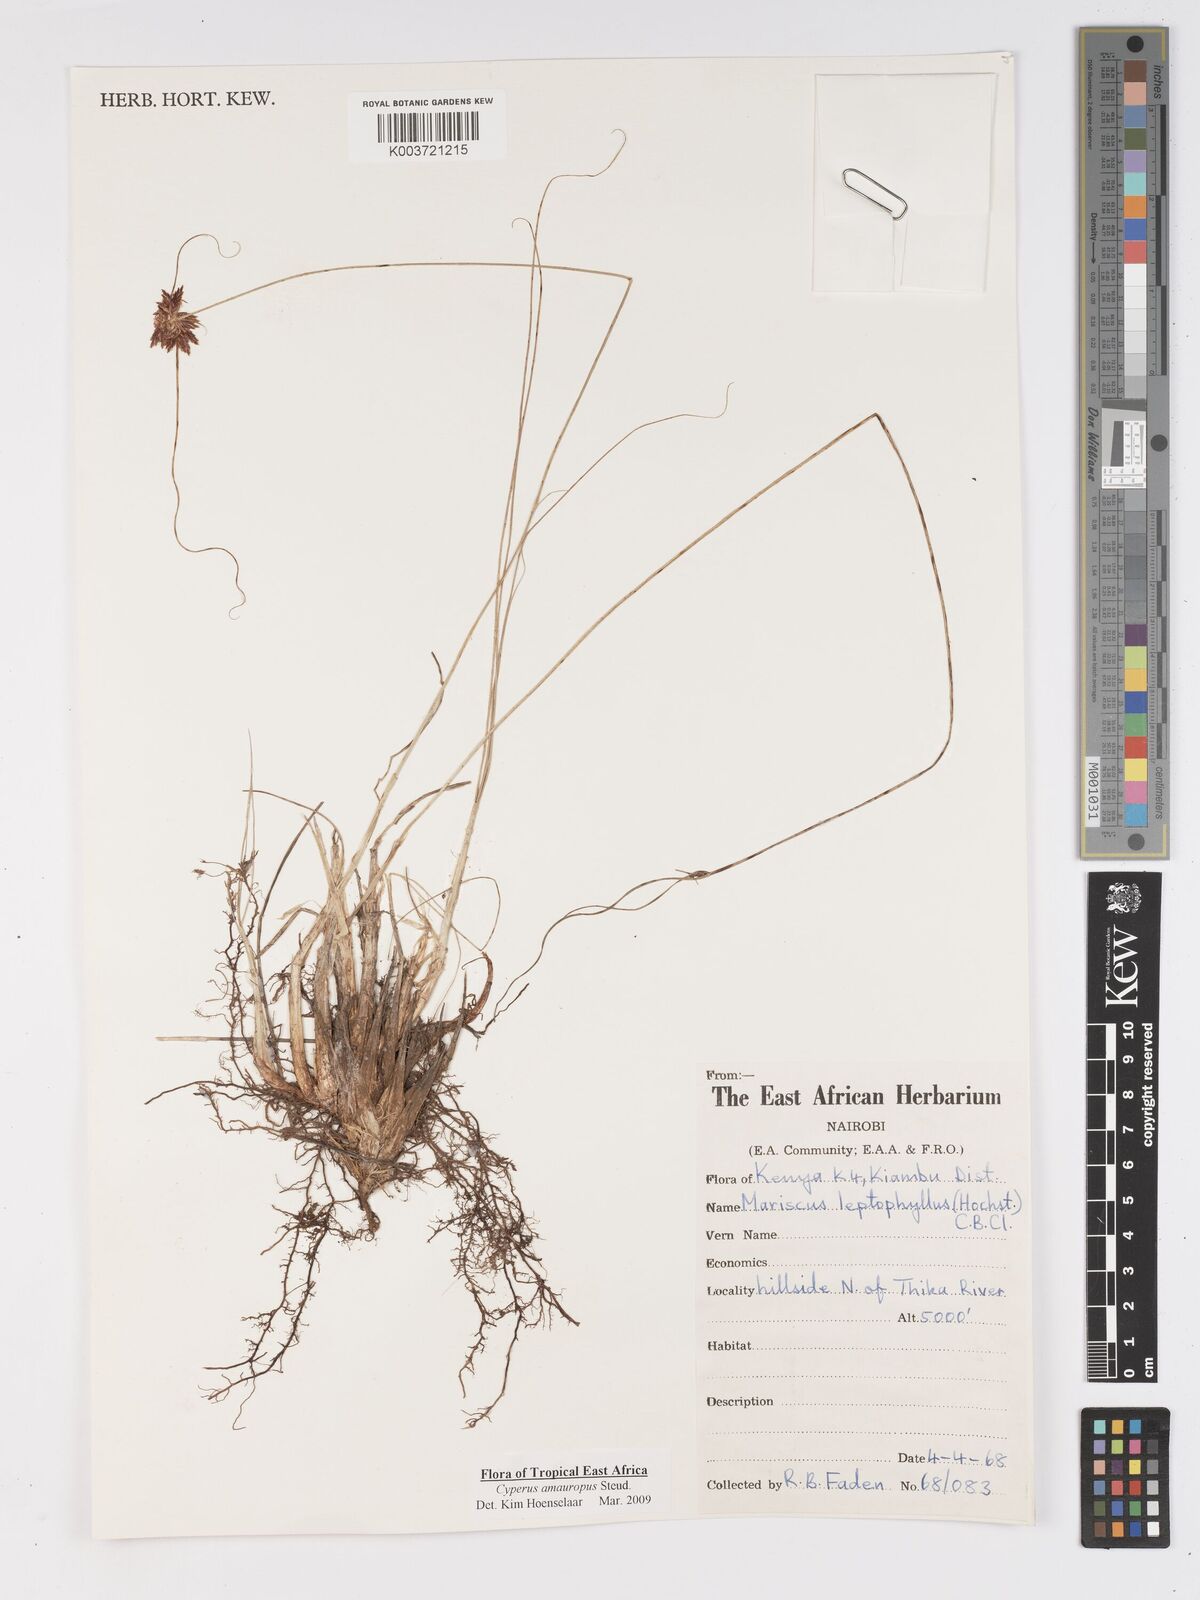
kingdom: Plantae
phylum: Tracheophyta
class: Liliopsida
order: Poales
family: Cyperaceae
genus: Cyperus
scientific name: Cyperus amauropus
